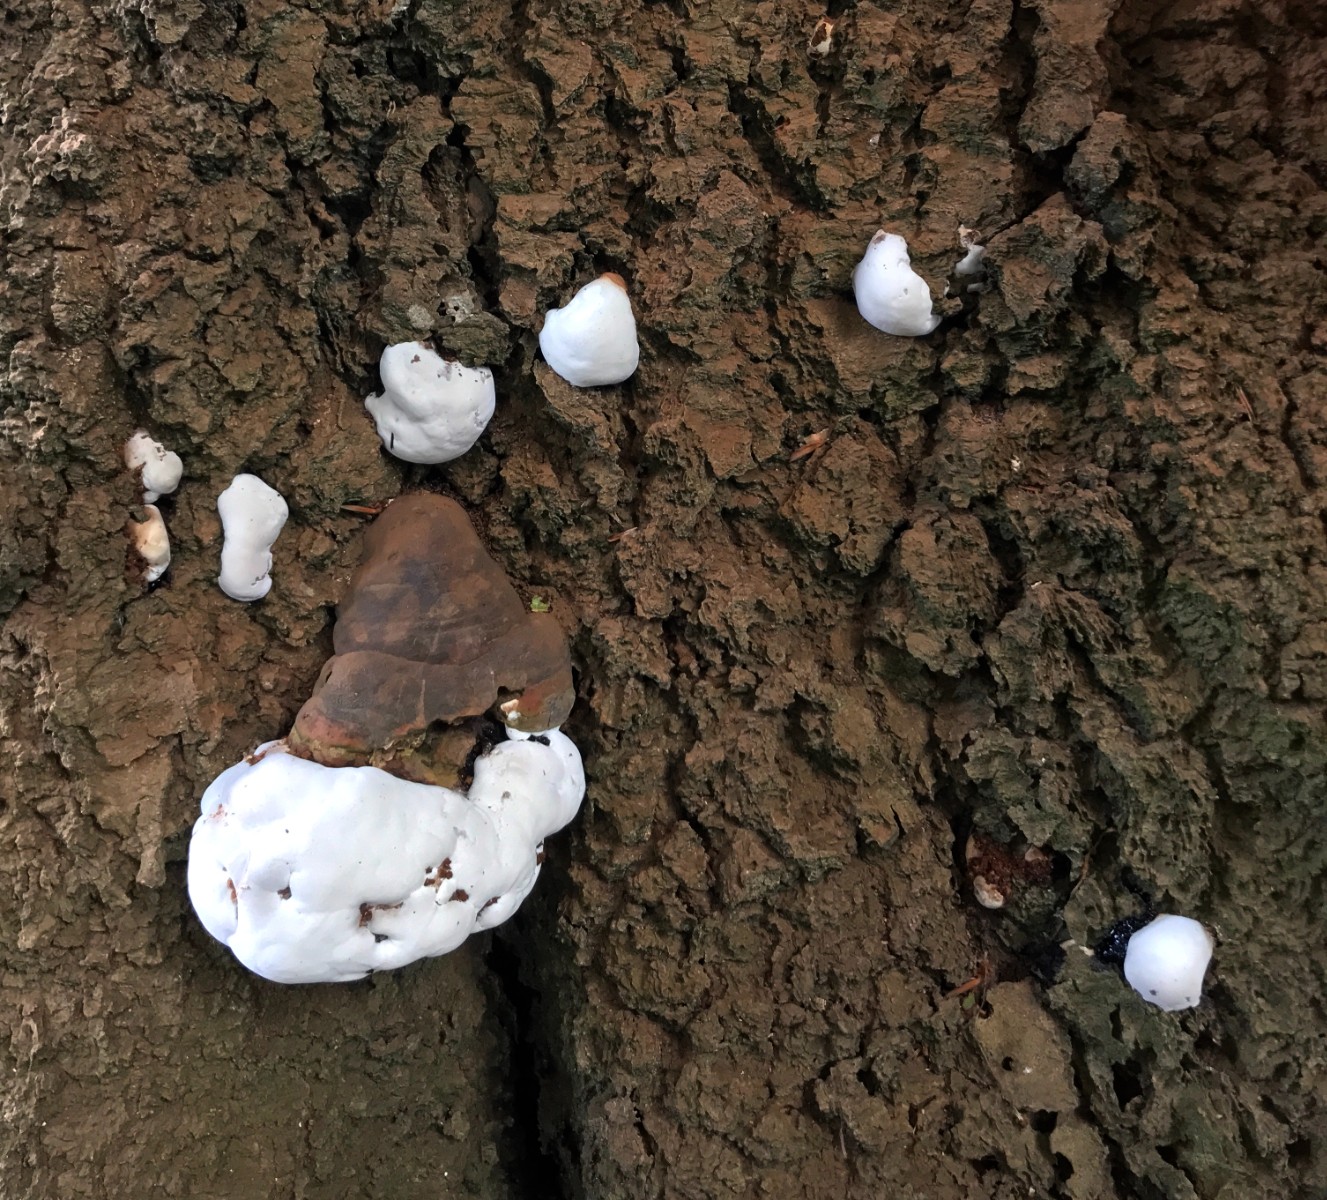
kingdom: Fungi
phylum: Basidiomycota
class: Agaricomycetes
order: Polyporales
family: Polyporaceae
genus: Ganoderma
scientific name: Ganoderma pfeifferi
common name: kobberrød lakporesvamp
